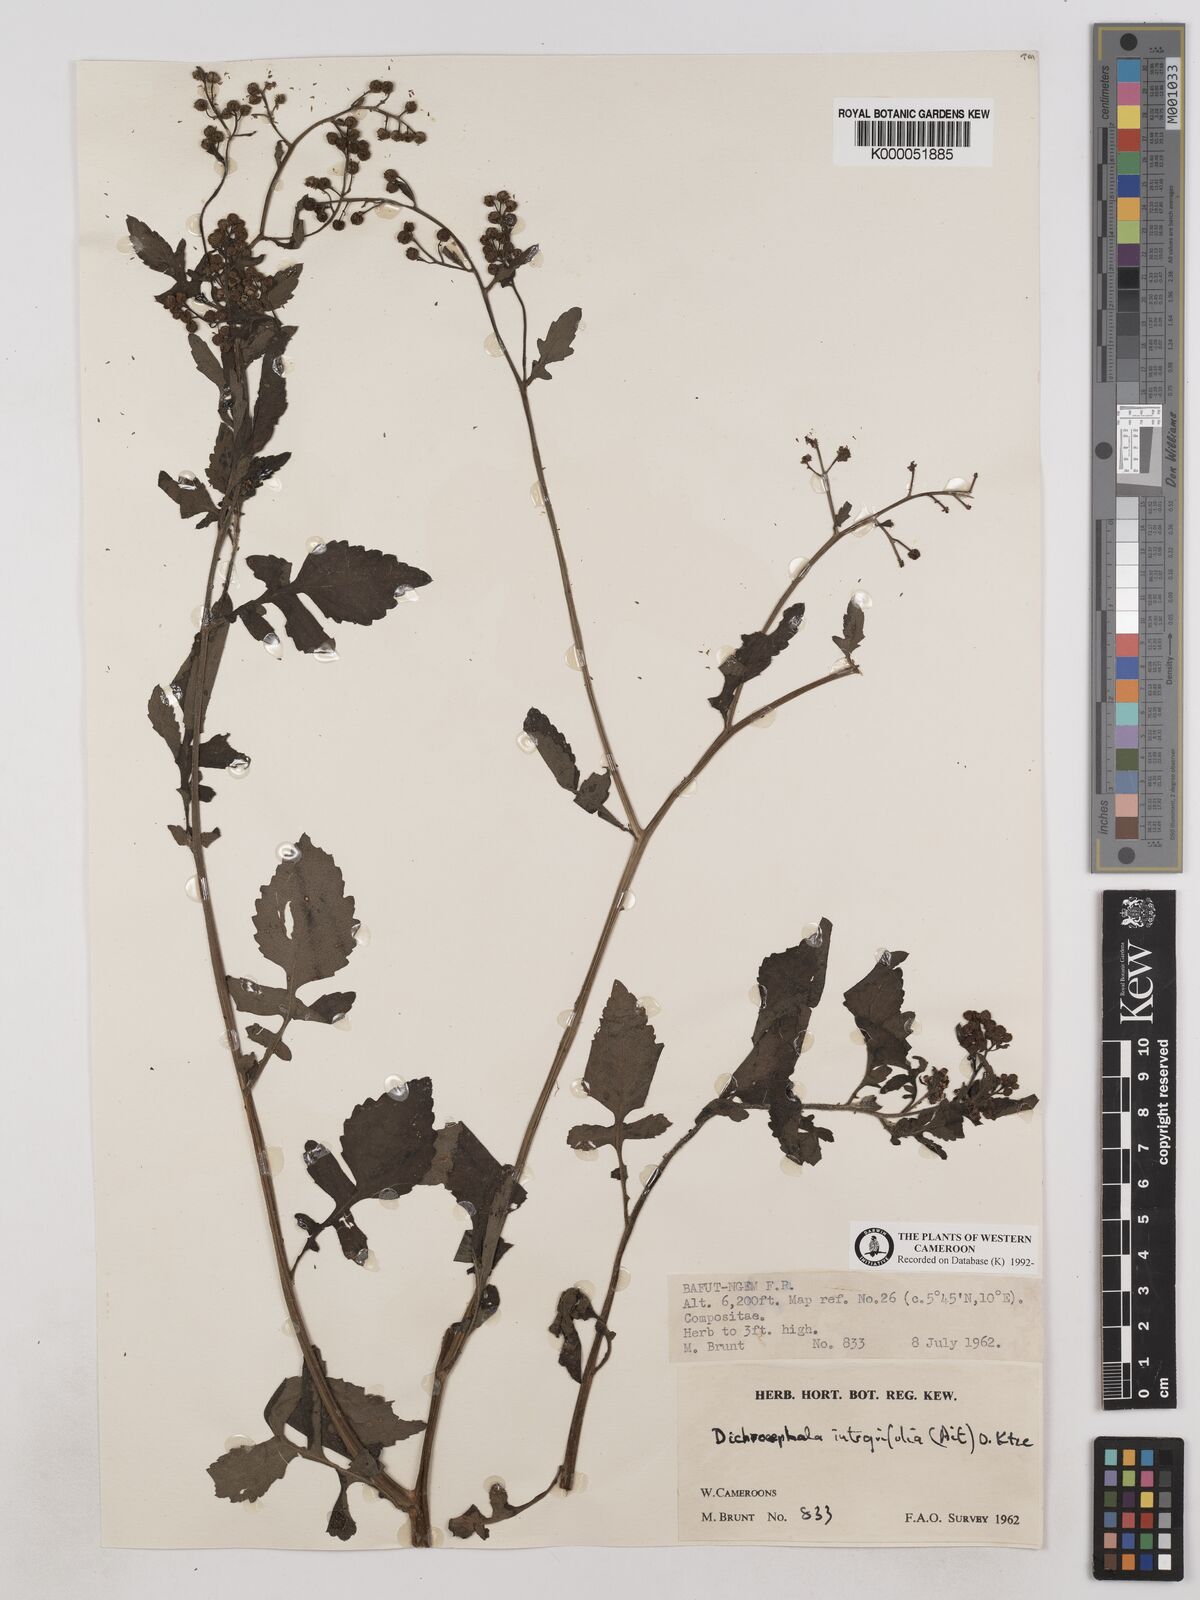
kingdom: Plantae
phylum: Tracheophyta
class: Magnoliopsida
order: Asterales
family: Asteraceae
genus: Dichrocephala
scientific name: Dichrocephala integrifolia
